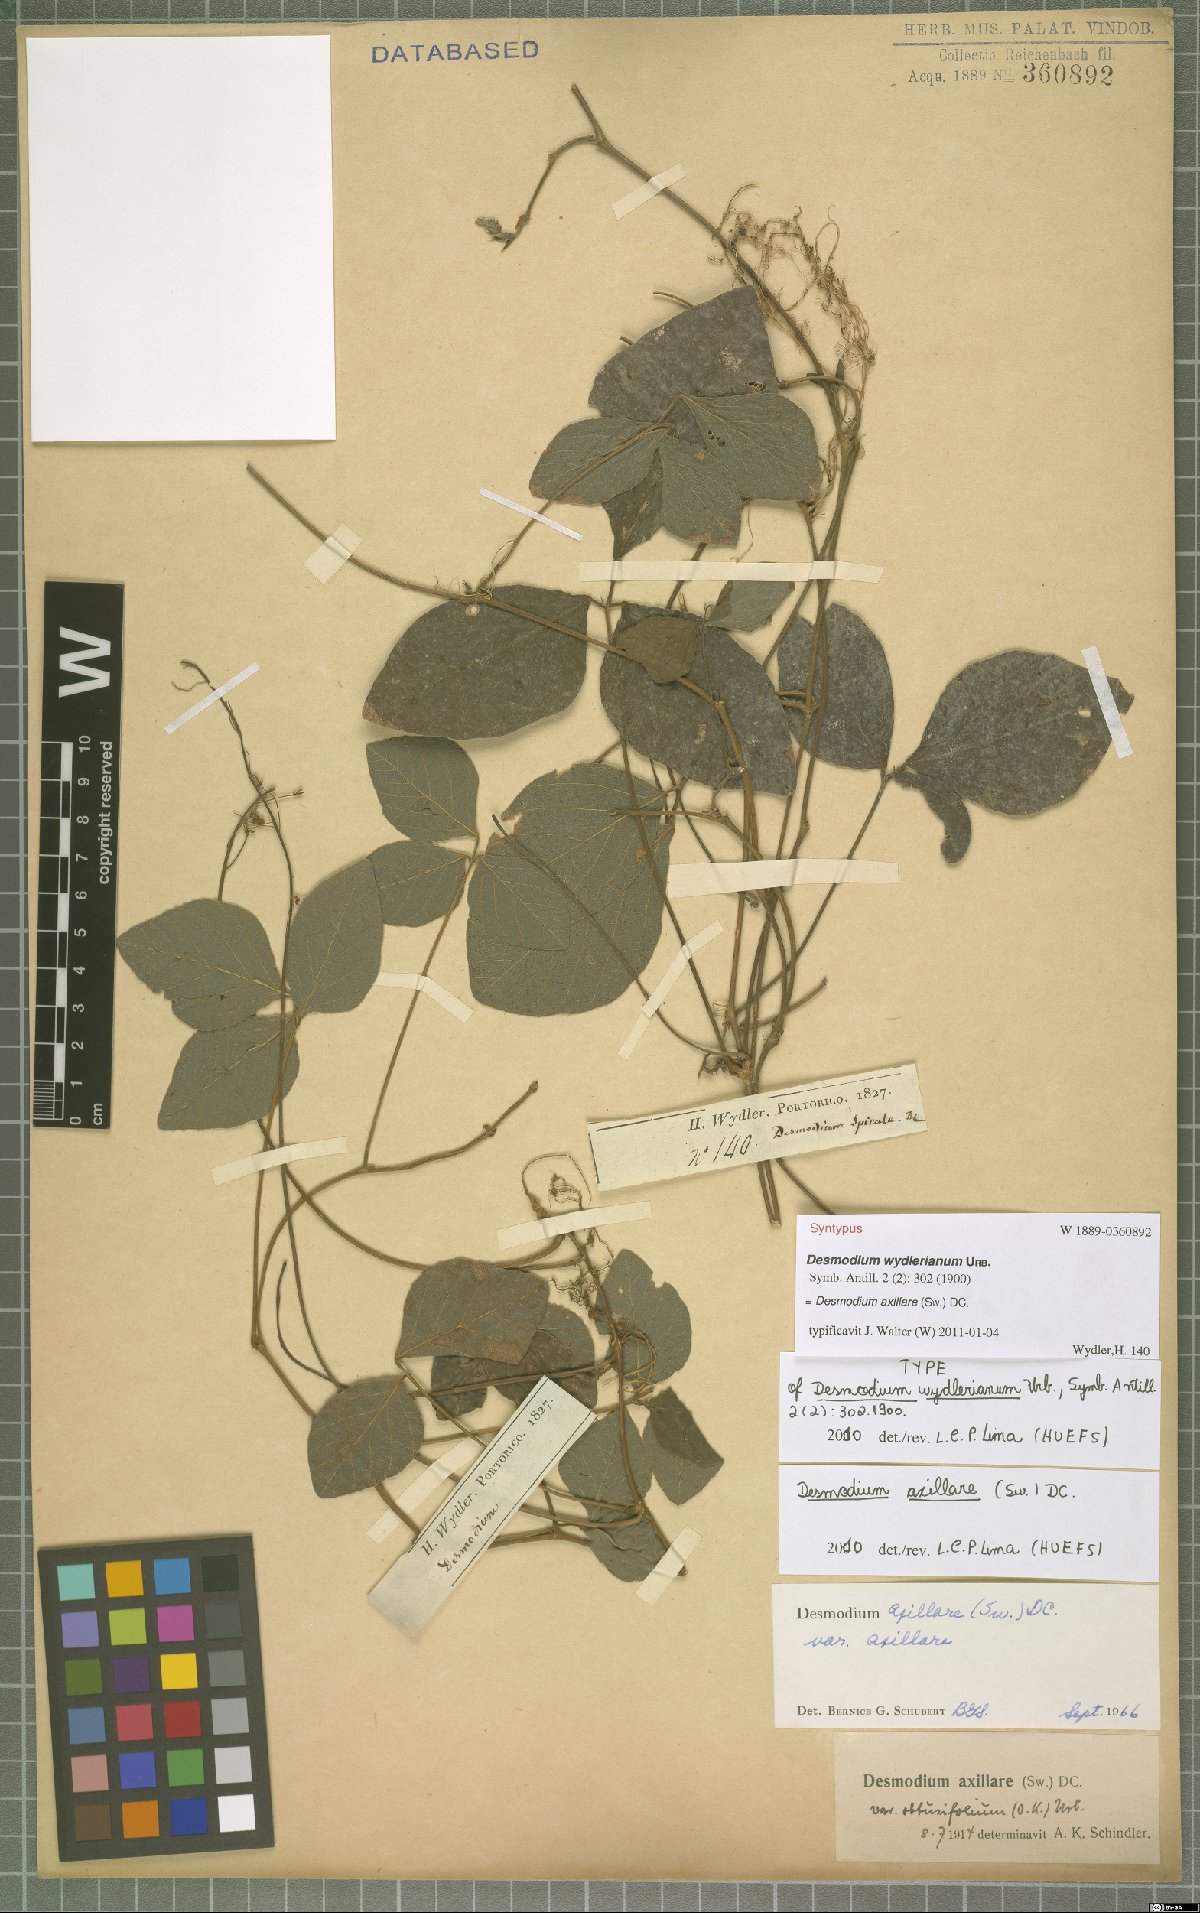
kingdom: Plantae
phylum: Tracheophyta
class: Magnoliopsida
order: Fabales
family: Fabaceae
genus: Desmodium
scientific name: Desmodium axillare
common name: Wire with
